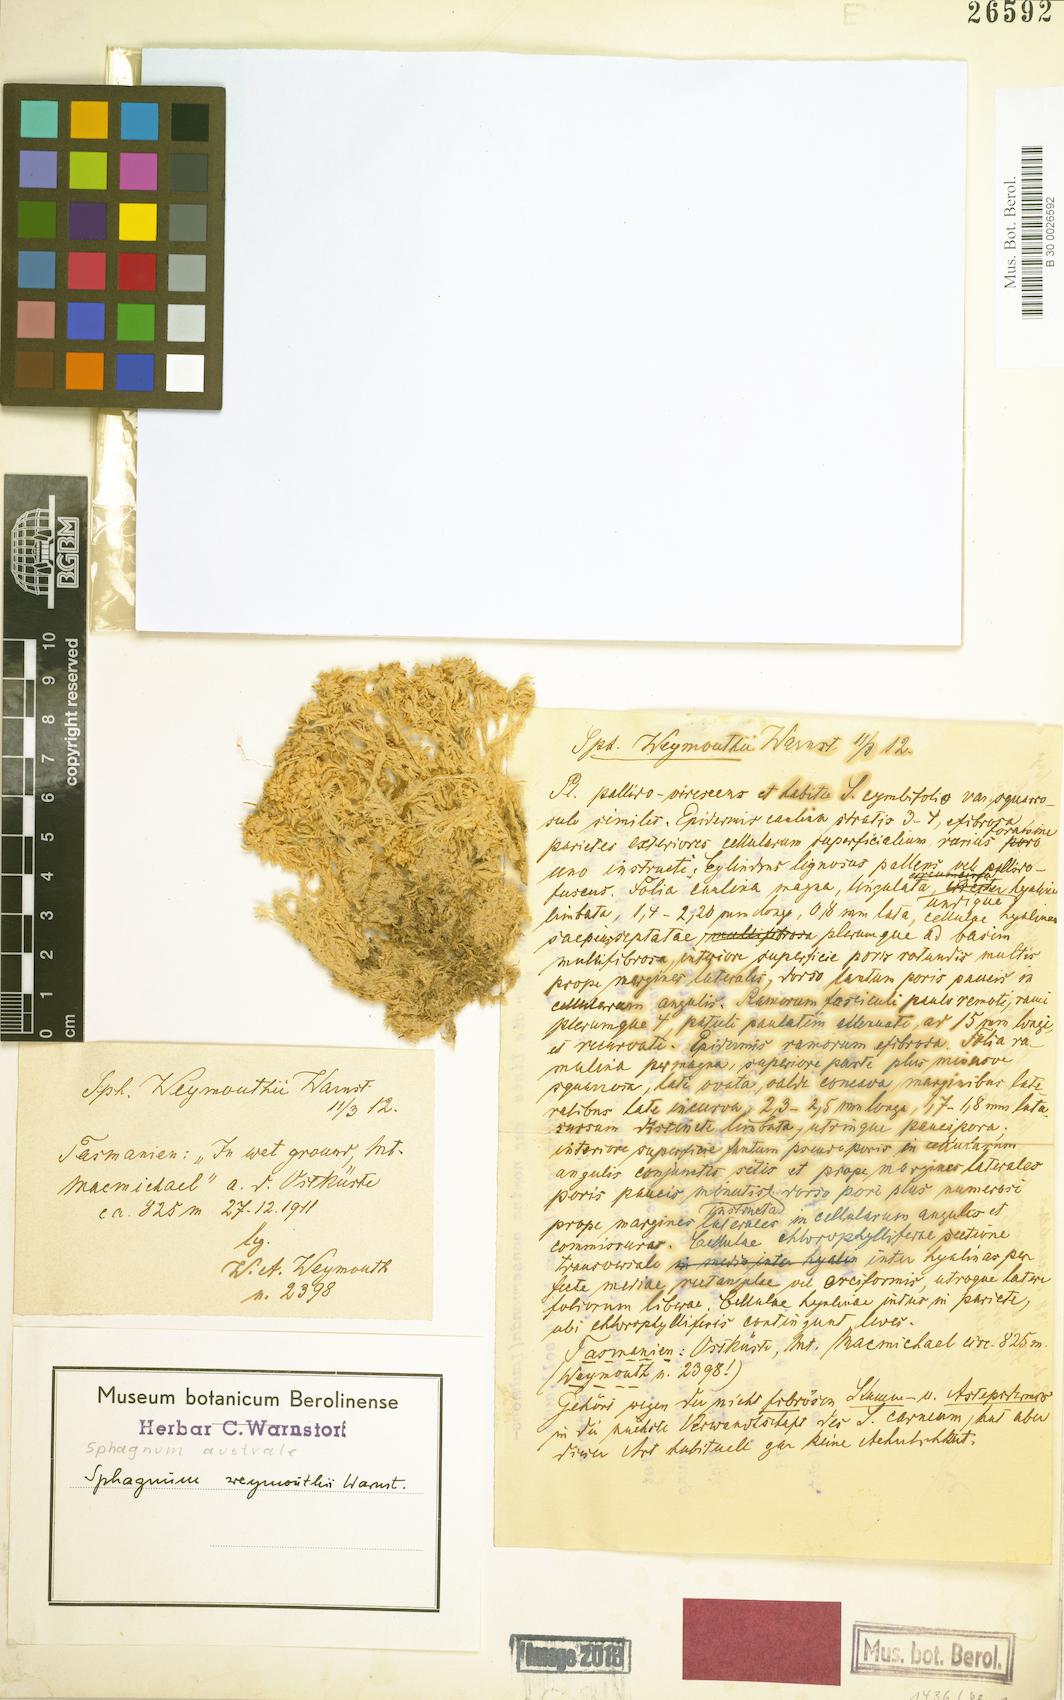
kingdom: Plantae
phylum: Bryophyta
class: Sphagnopsida
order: Sphagnales
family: Sphagnaceae
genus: Sphagnum
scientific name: Sphagnum australe
